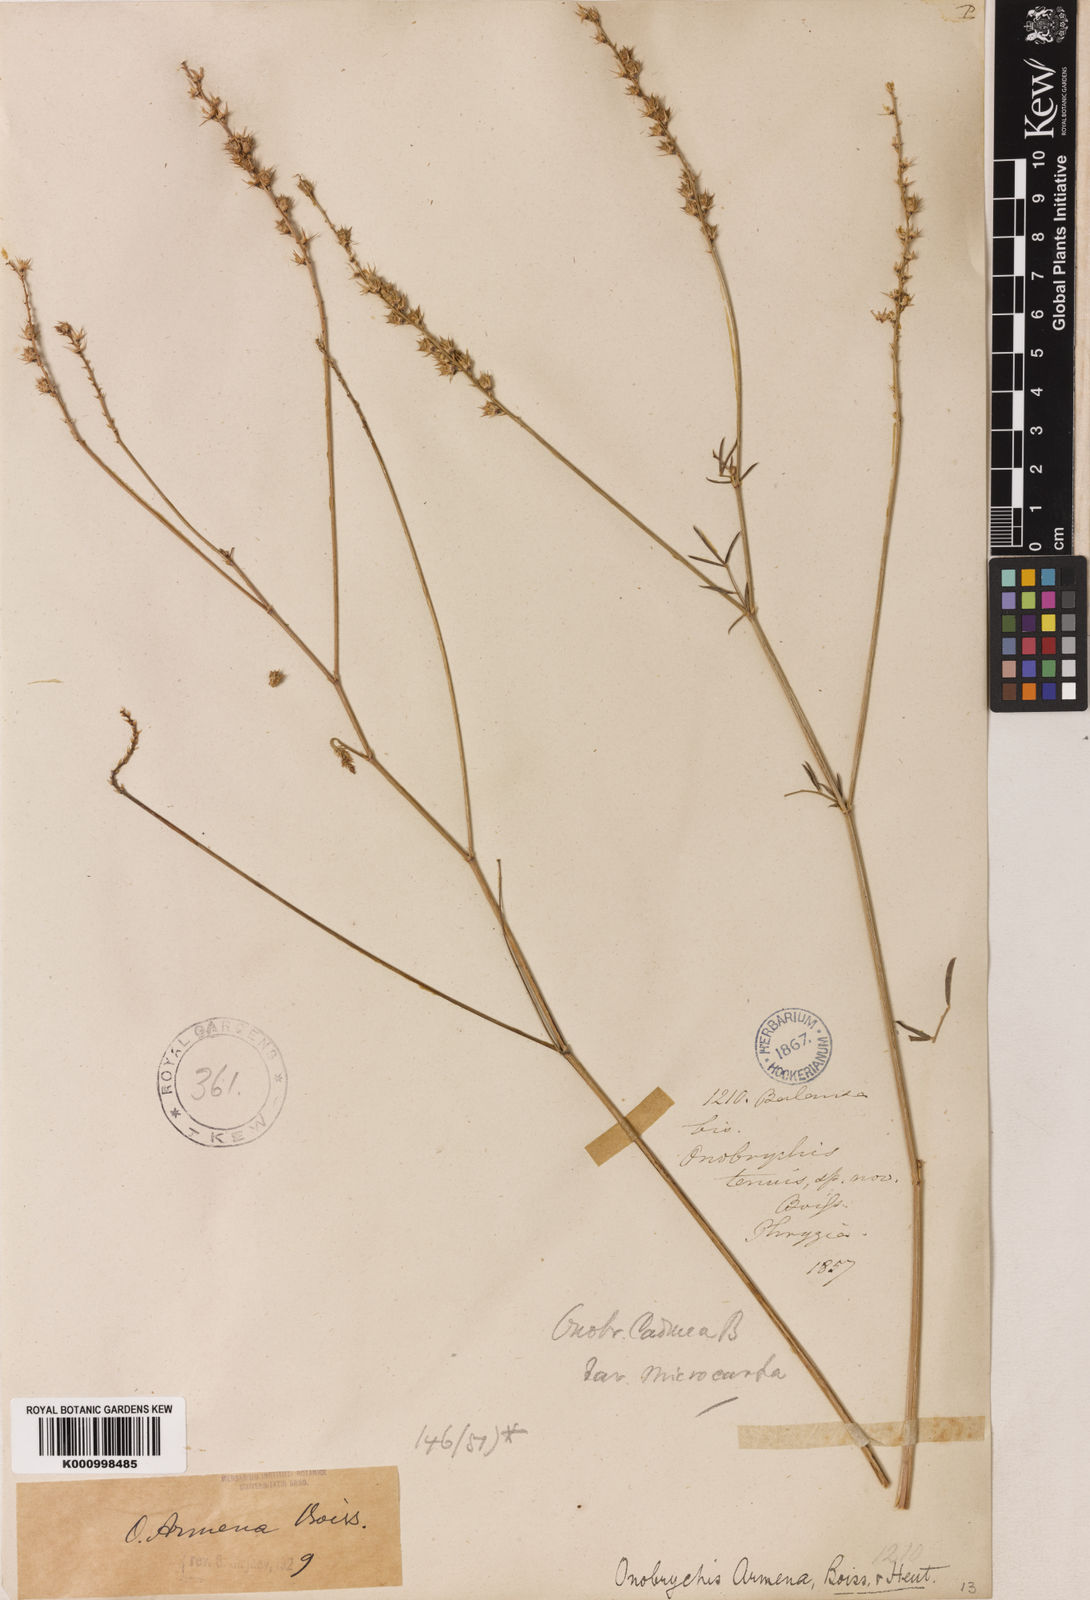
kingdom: Plantae
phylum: Tracheophyta
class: Magnoliopsida
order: Fabales
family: Fabaceae
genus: Onobrychis
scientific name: Onobrychis arenaria
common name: Sand esparcet
